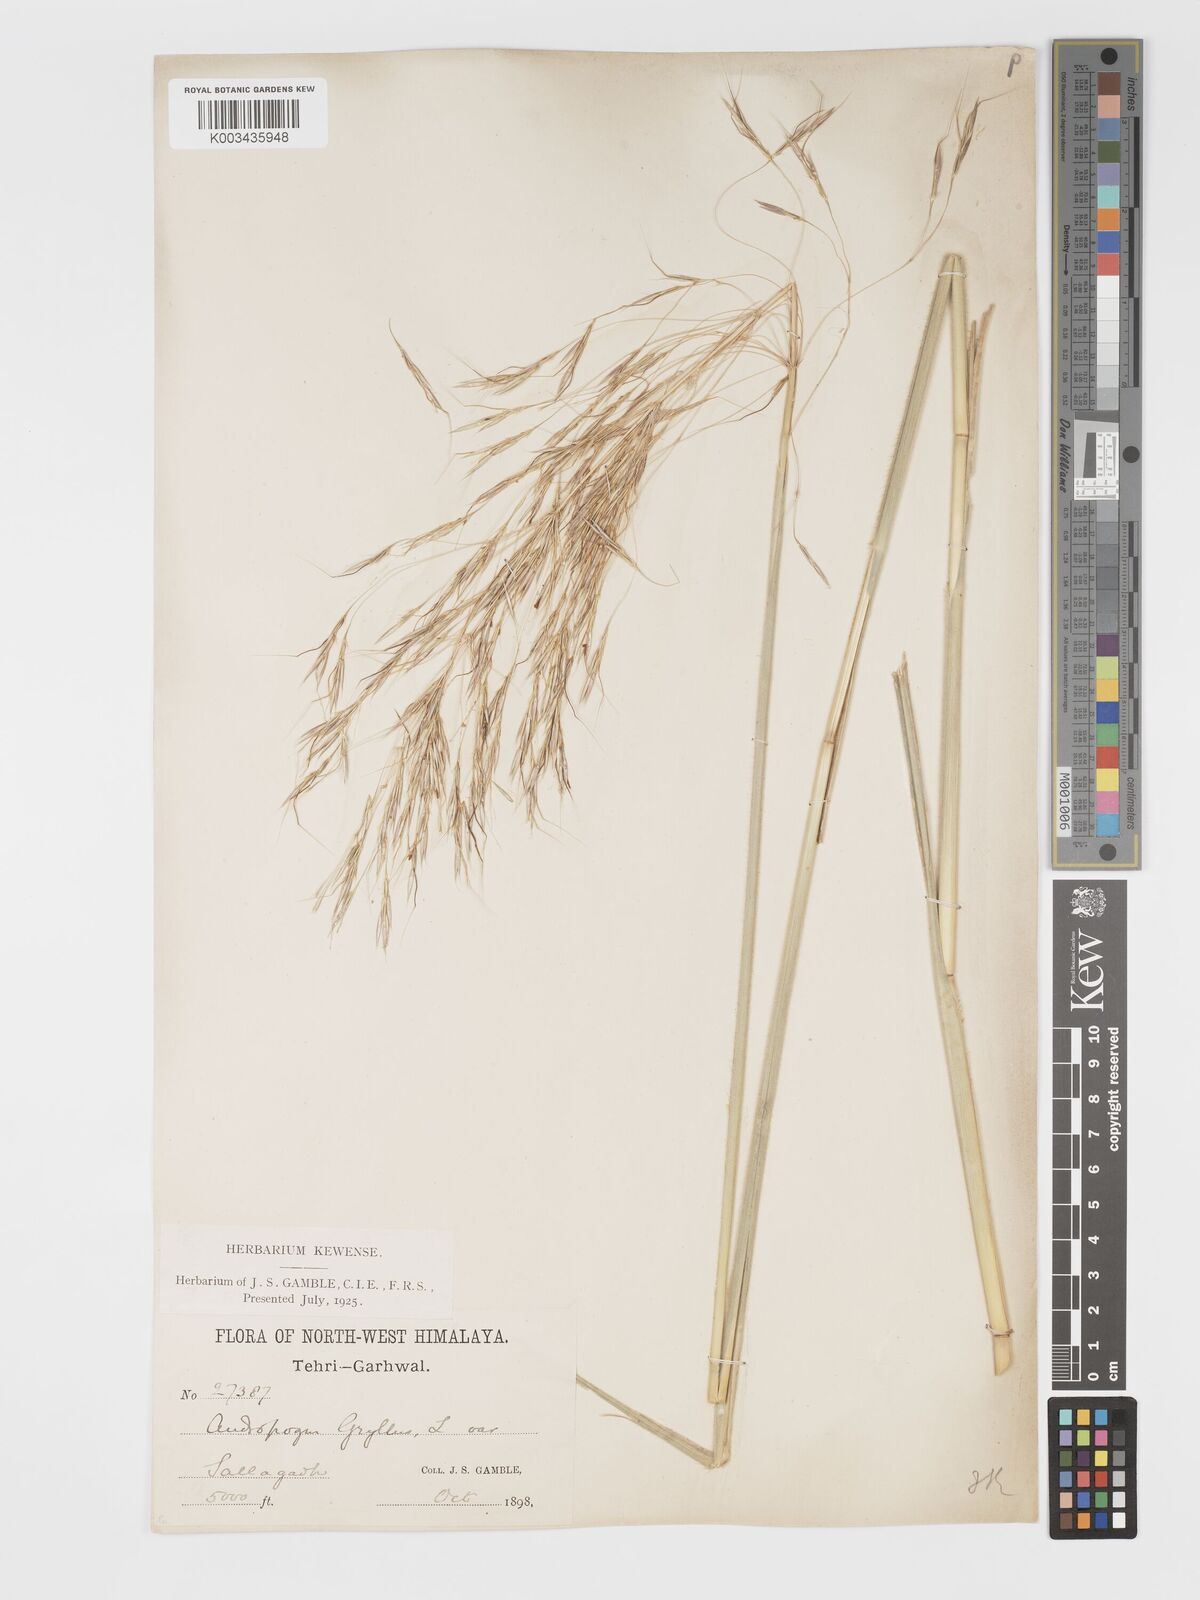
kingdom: Plantae
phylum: Tracheophyta
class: Liliopsida
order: Poales
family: Poaceae
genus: Chrysopogon
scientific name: Chrysopogon gryllus
